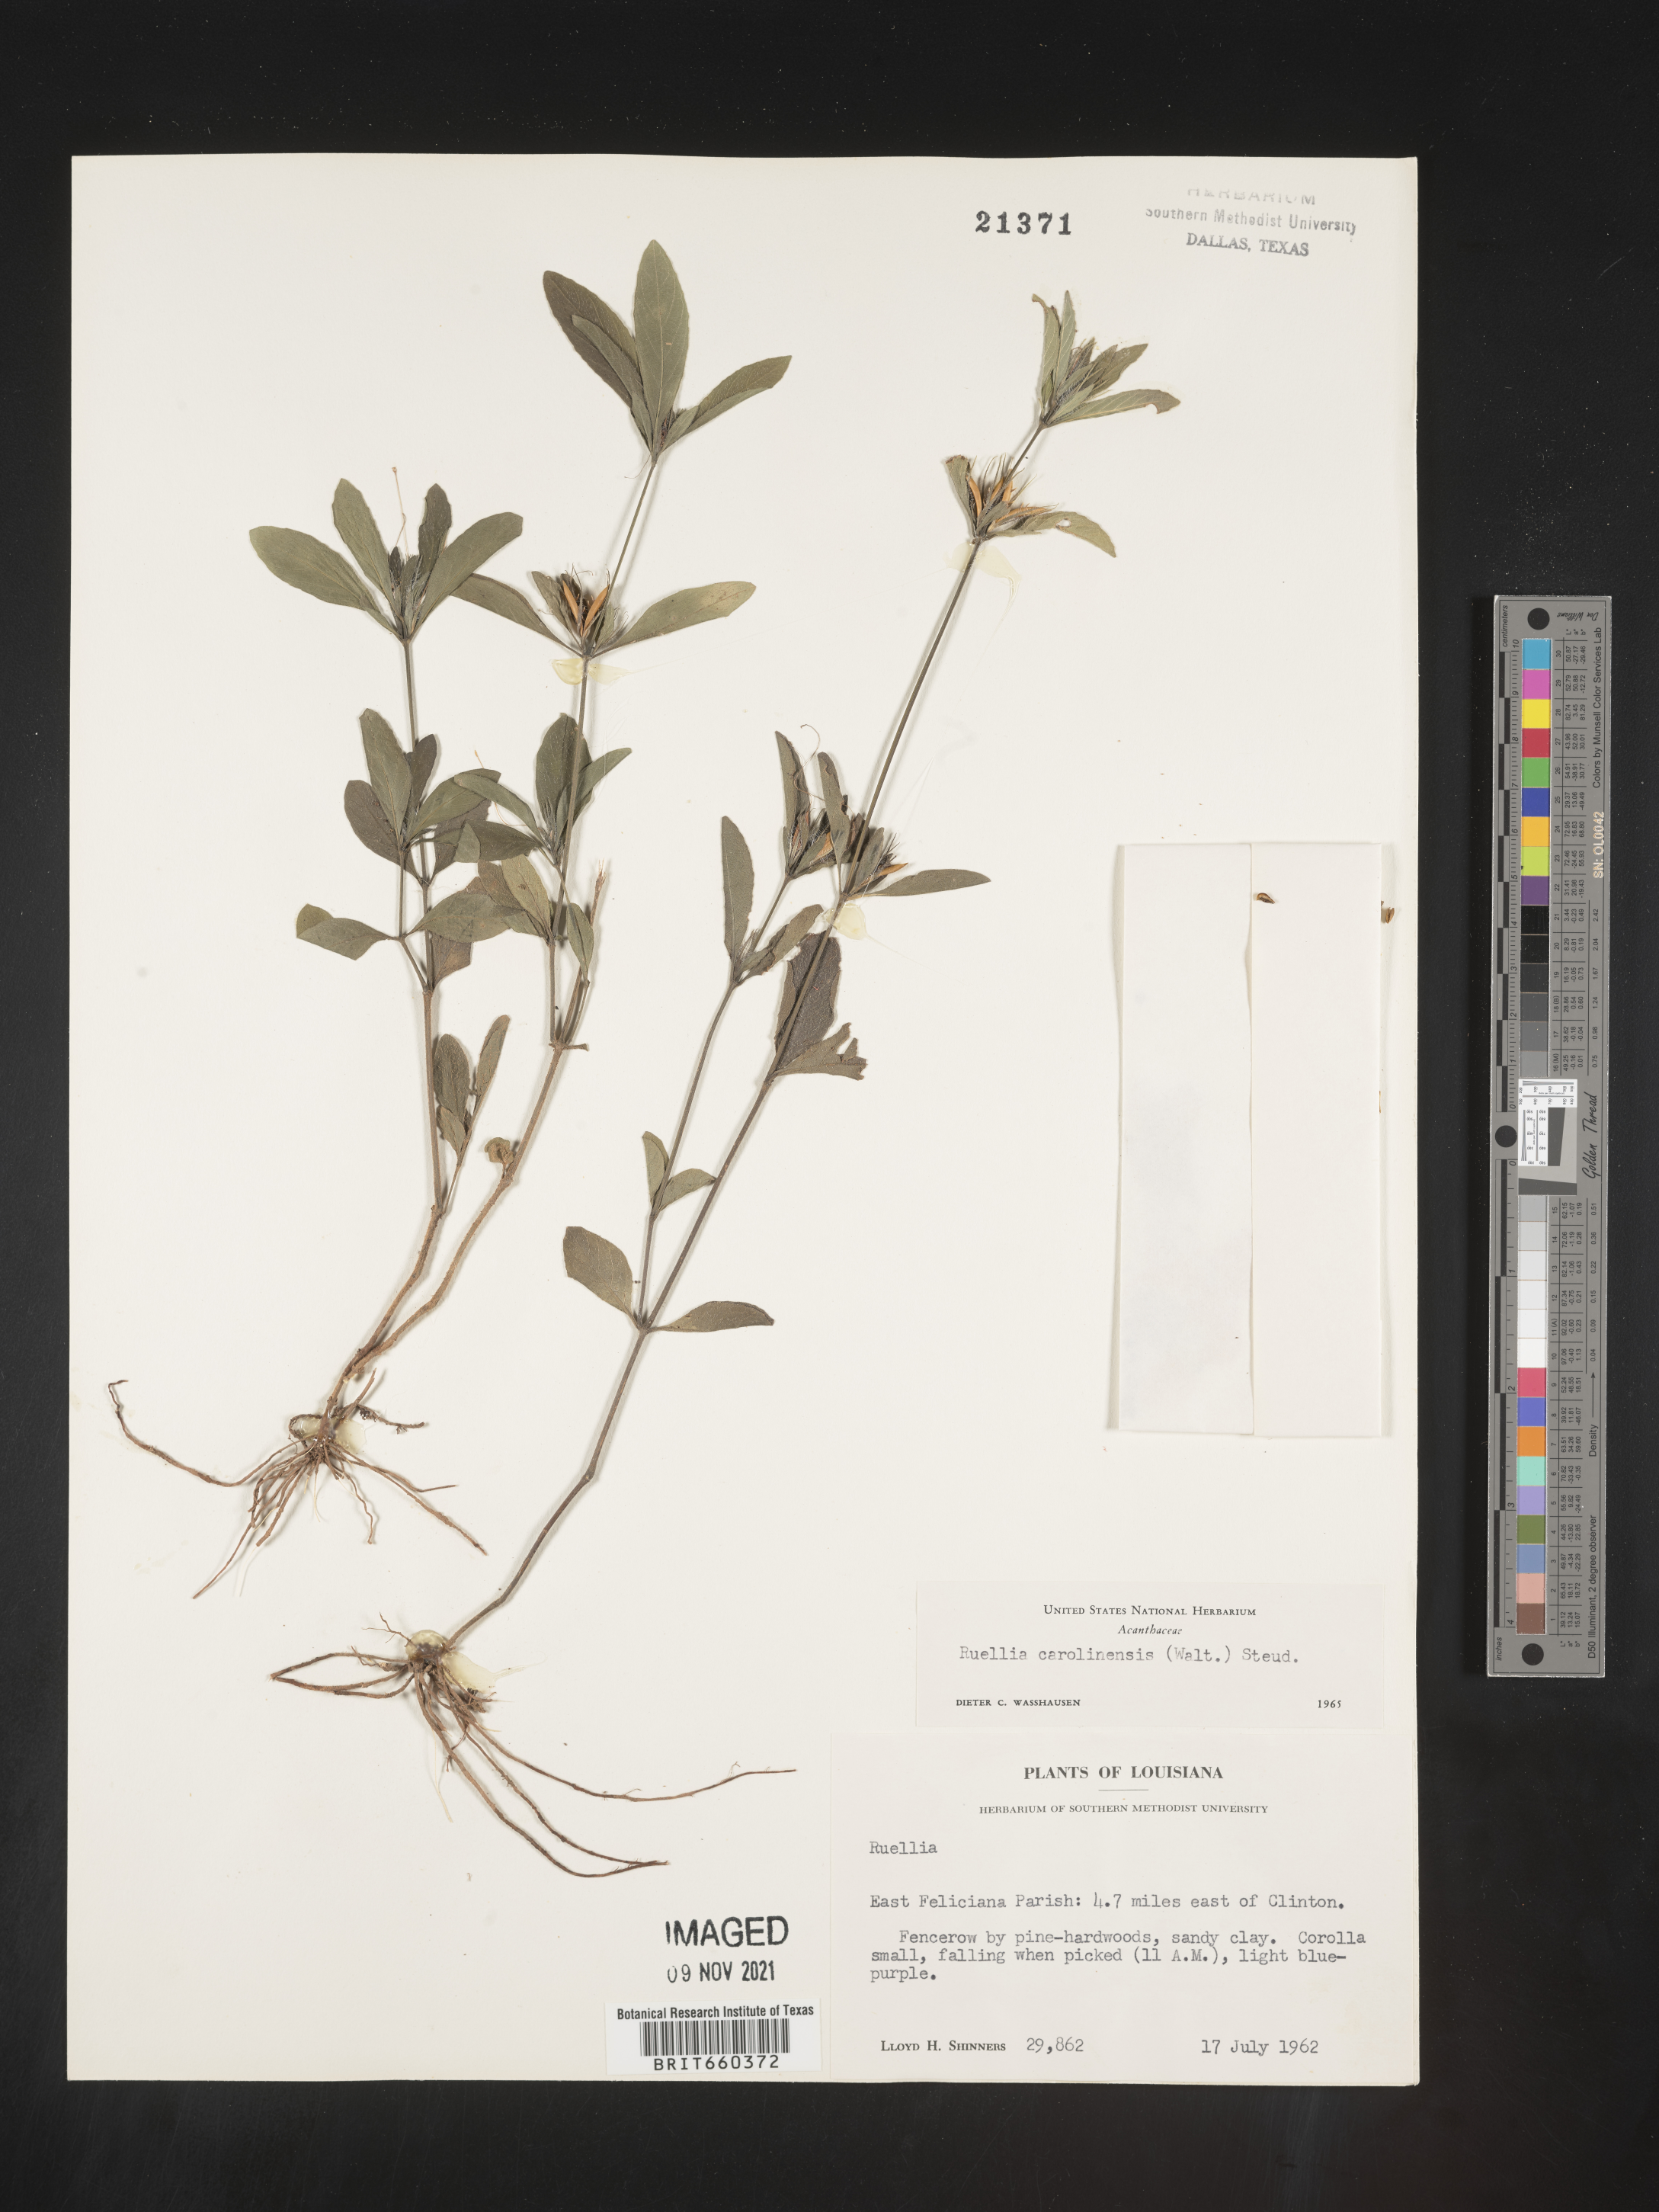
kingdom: Plantae
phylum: Tracheophyta
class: Magnoliopsida
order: Lamiales
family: Acanthaceae
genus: Ruellia
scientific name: Ruellia caroliniensis
